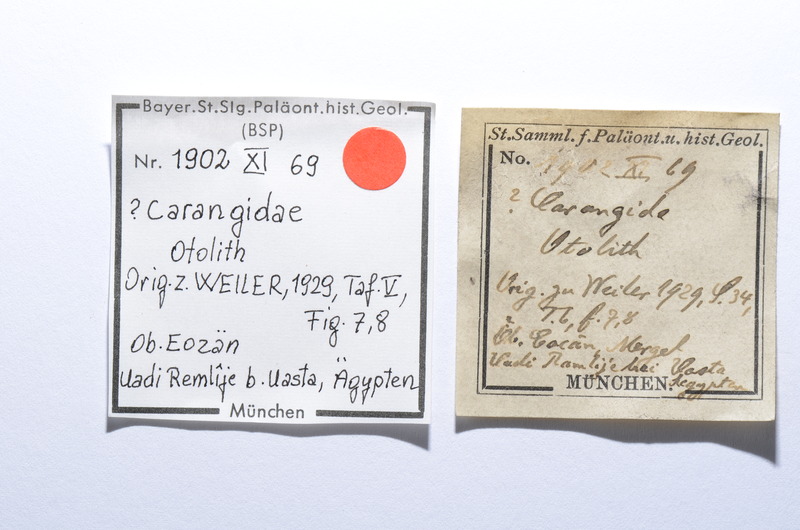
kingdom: Animalia
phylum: Chordata
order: Perciformes
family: Carangidae
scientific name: Carangidae
